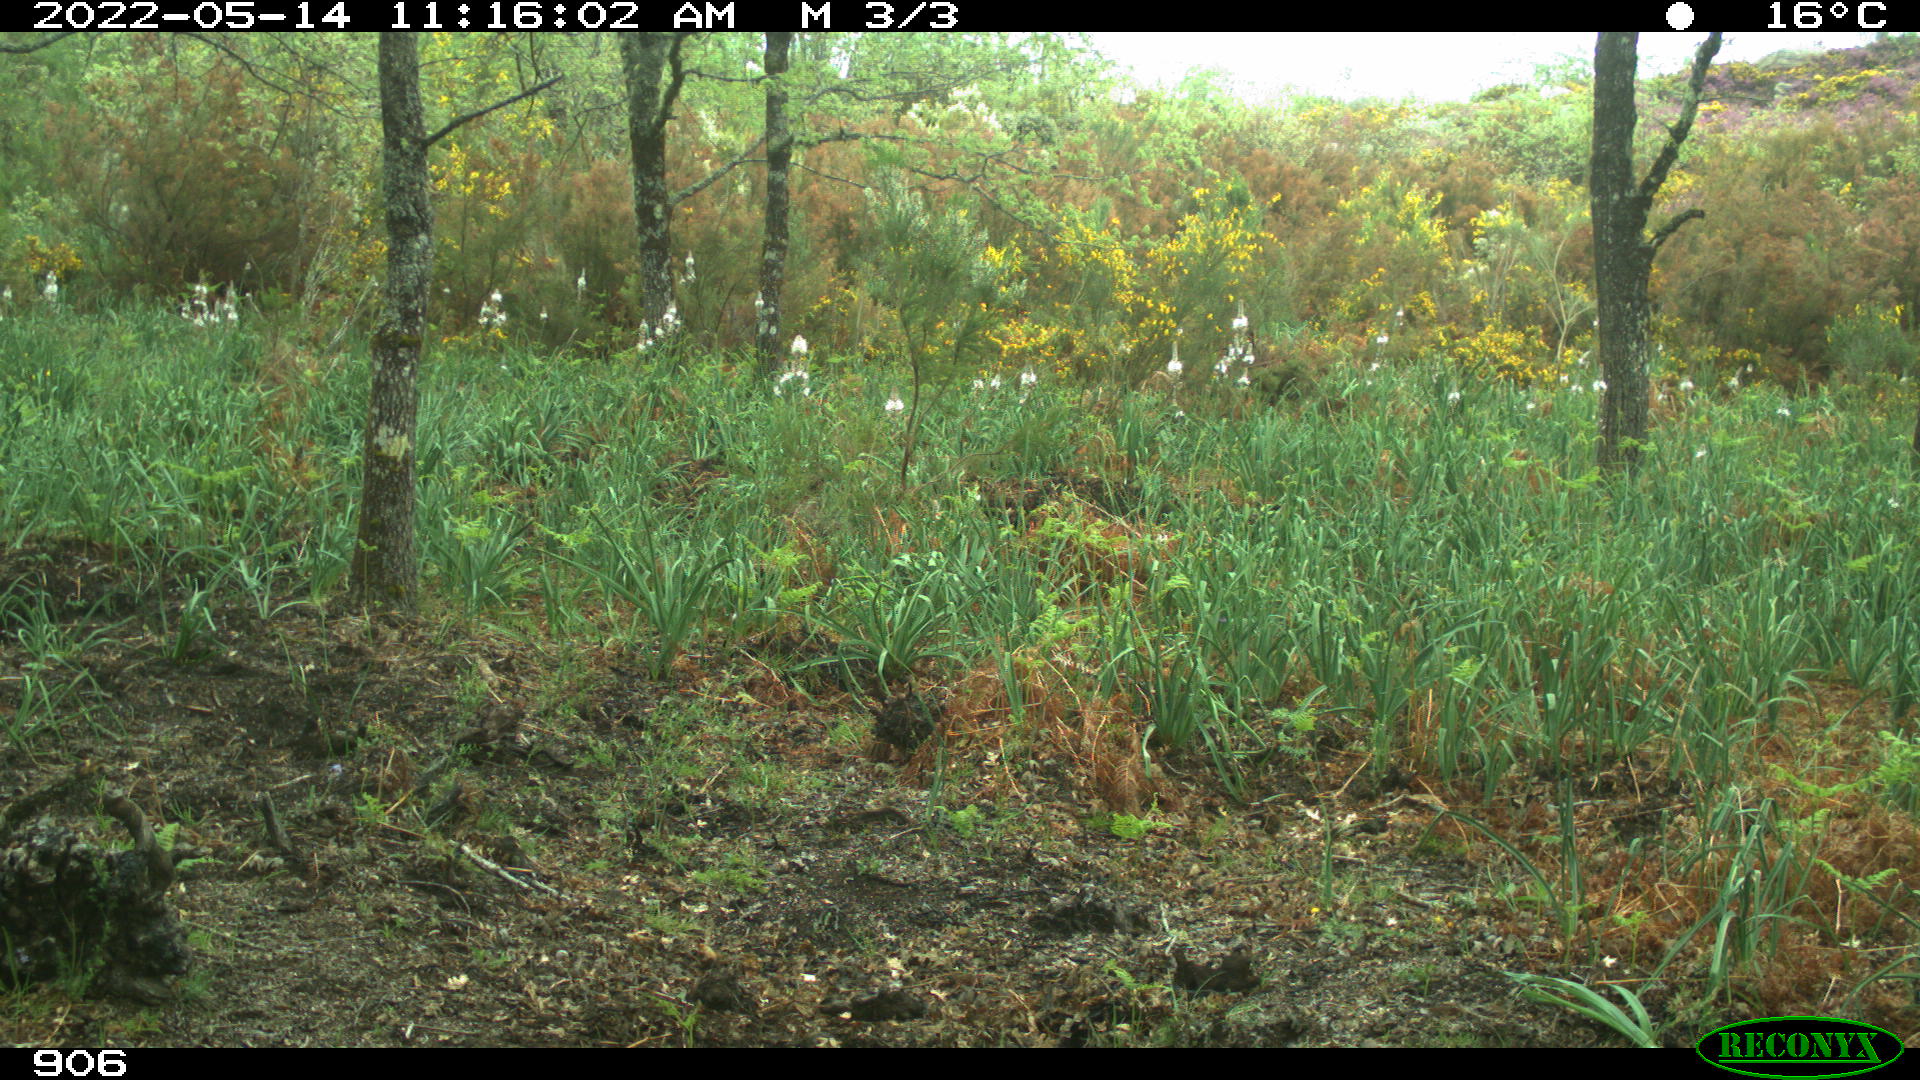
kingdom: Animalia
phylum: Chordata
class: Mammalia
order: Perissodactyla
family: Equidae
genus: Equus
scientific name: Equus caballus
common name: Horse
